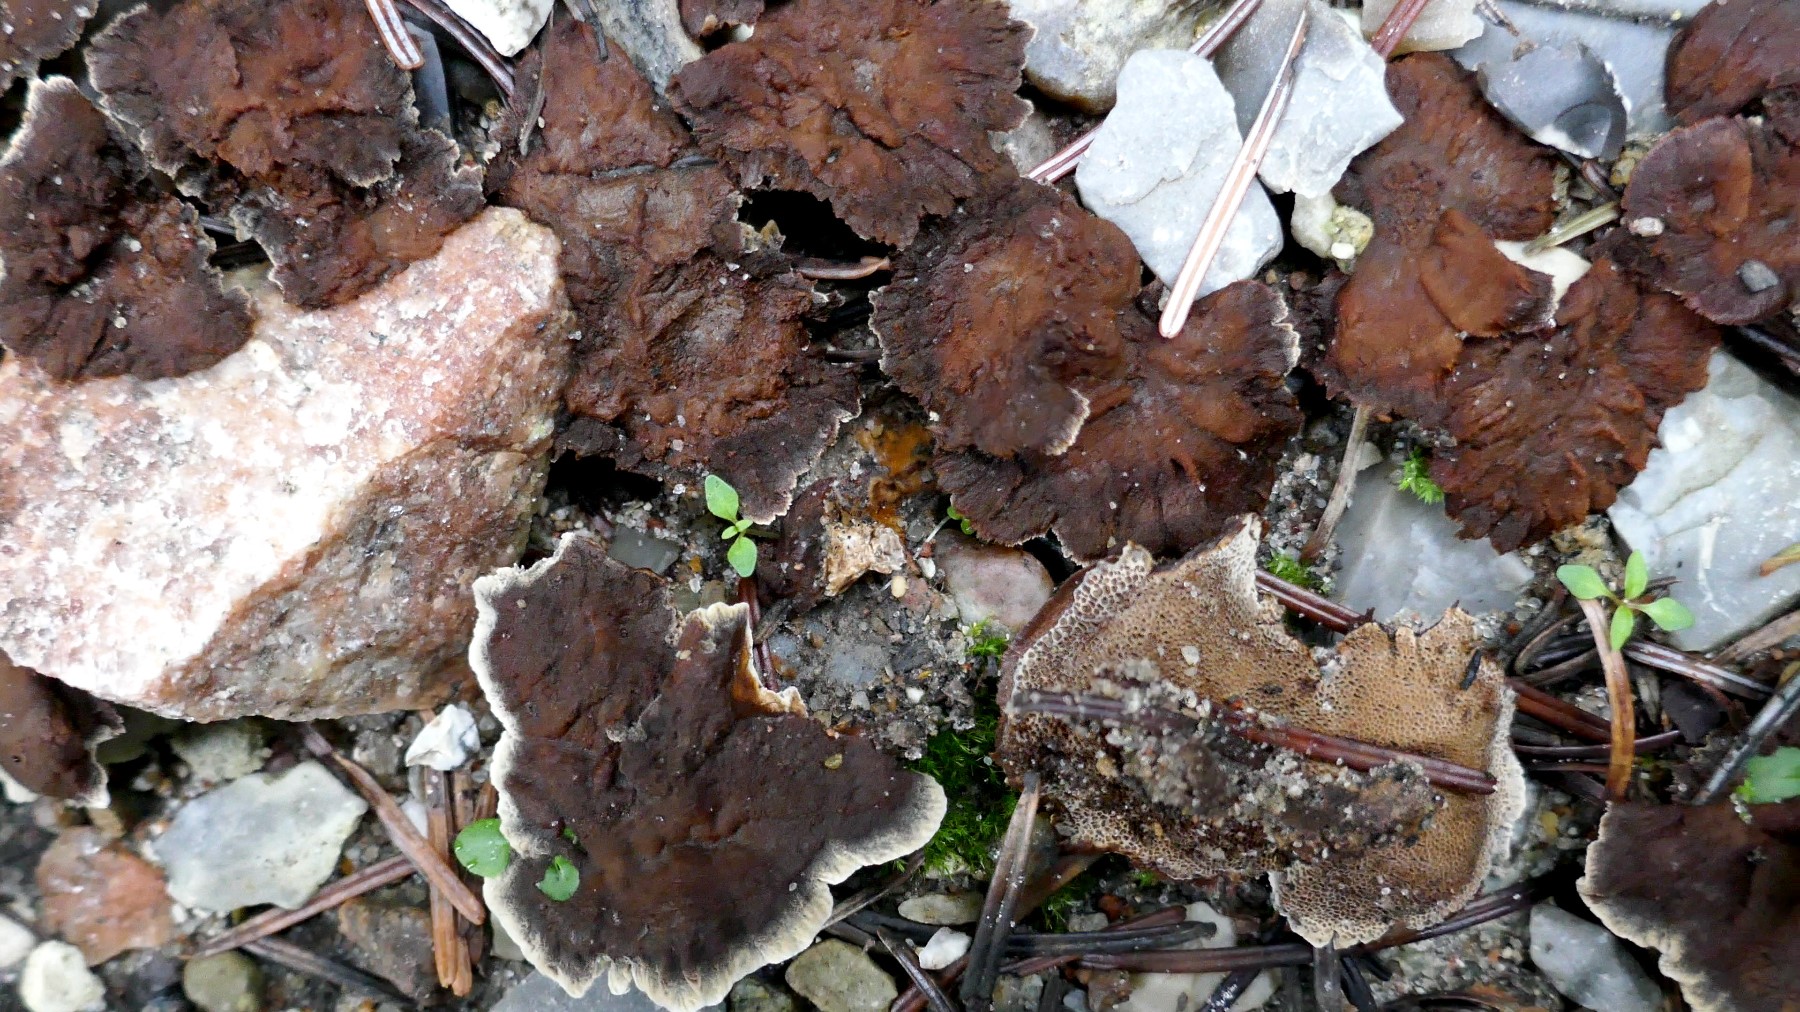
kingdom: Fungi
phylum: Basidiomycota
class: Agaricomycetes
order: Hymenochaetales
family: Hymenochaetaceae
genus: Coltricia
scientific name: Coltricia perennis
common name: almindelig sandporesvamp
